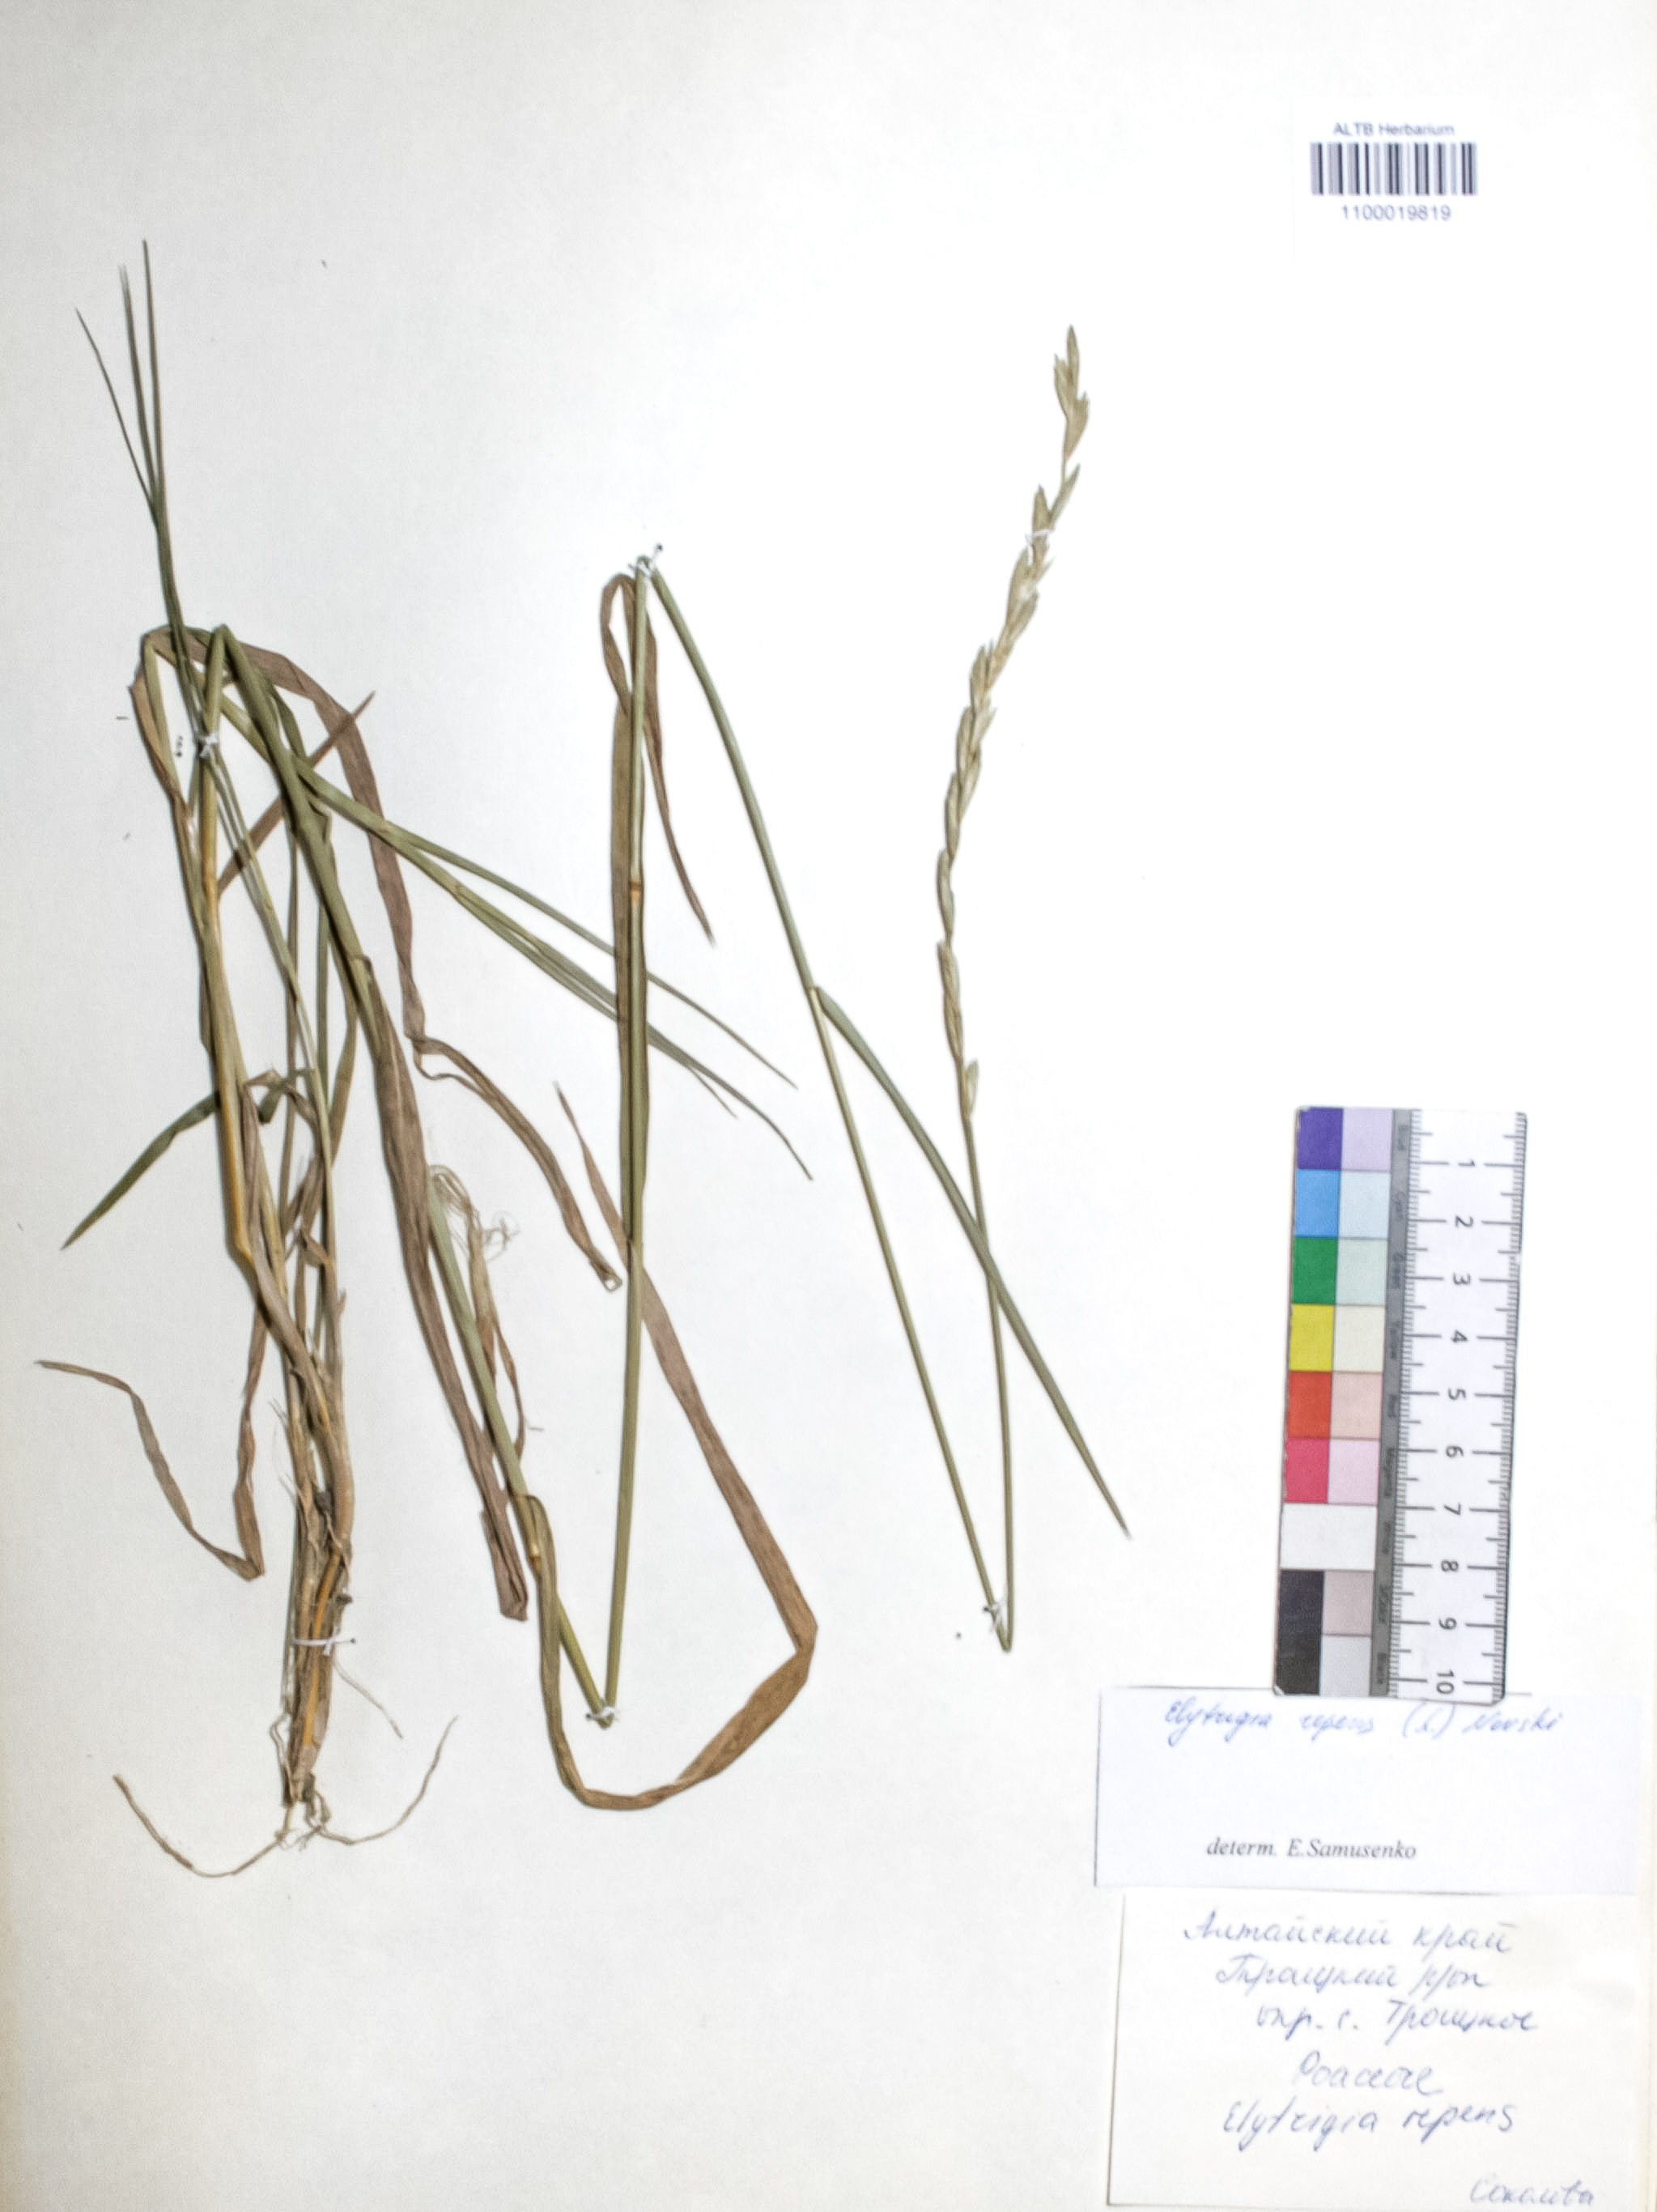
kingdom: Plantae
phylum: Tracheophyta
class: Liliopsida
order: Poales
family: Poaceae
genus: Elymus
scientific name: Elymus repens
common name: Quackgrass
